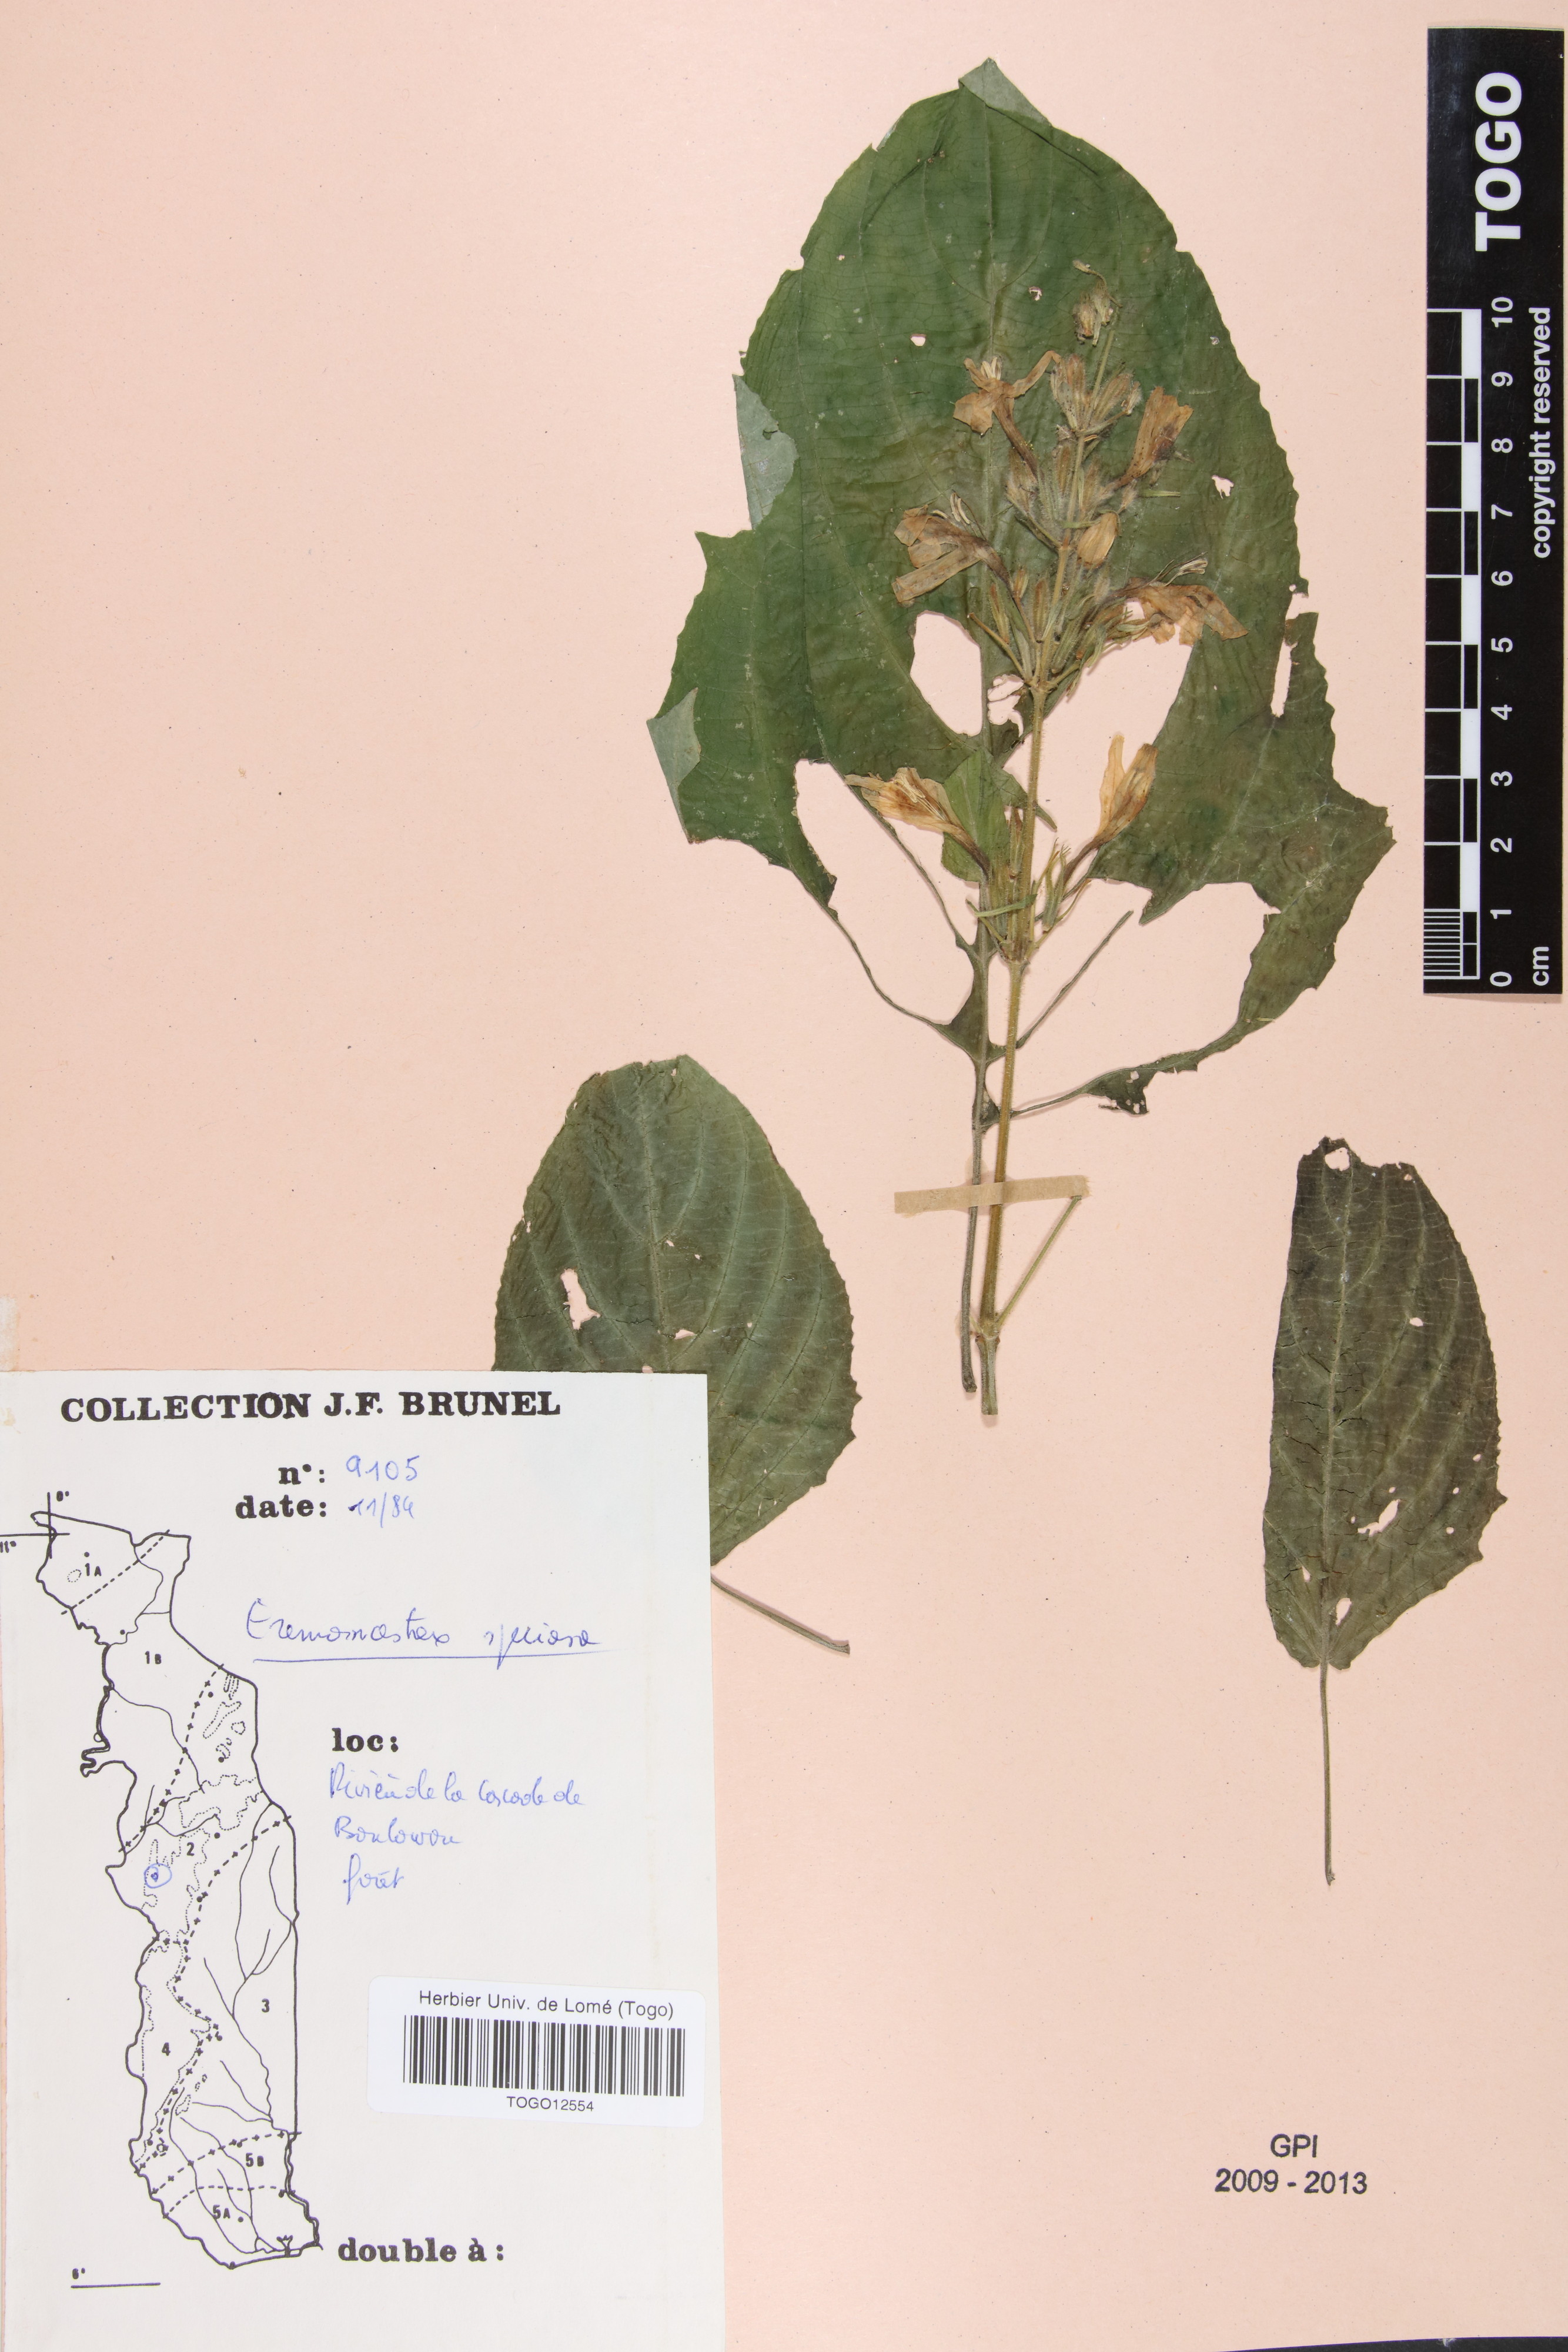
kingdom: Plantae
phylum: Tracheophyta
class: Magnoliopsida
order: Lamiales
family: Acanthaceae
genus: Eremomastax
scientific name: Eremomastax speciosa
